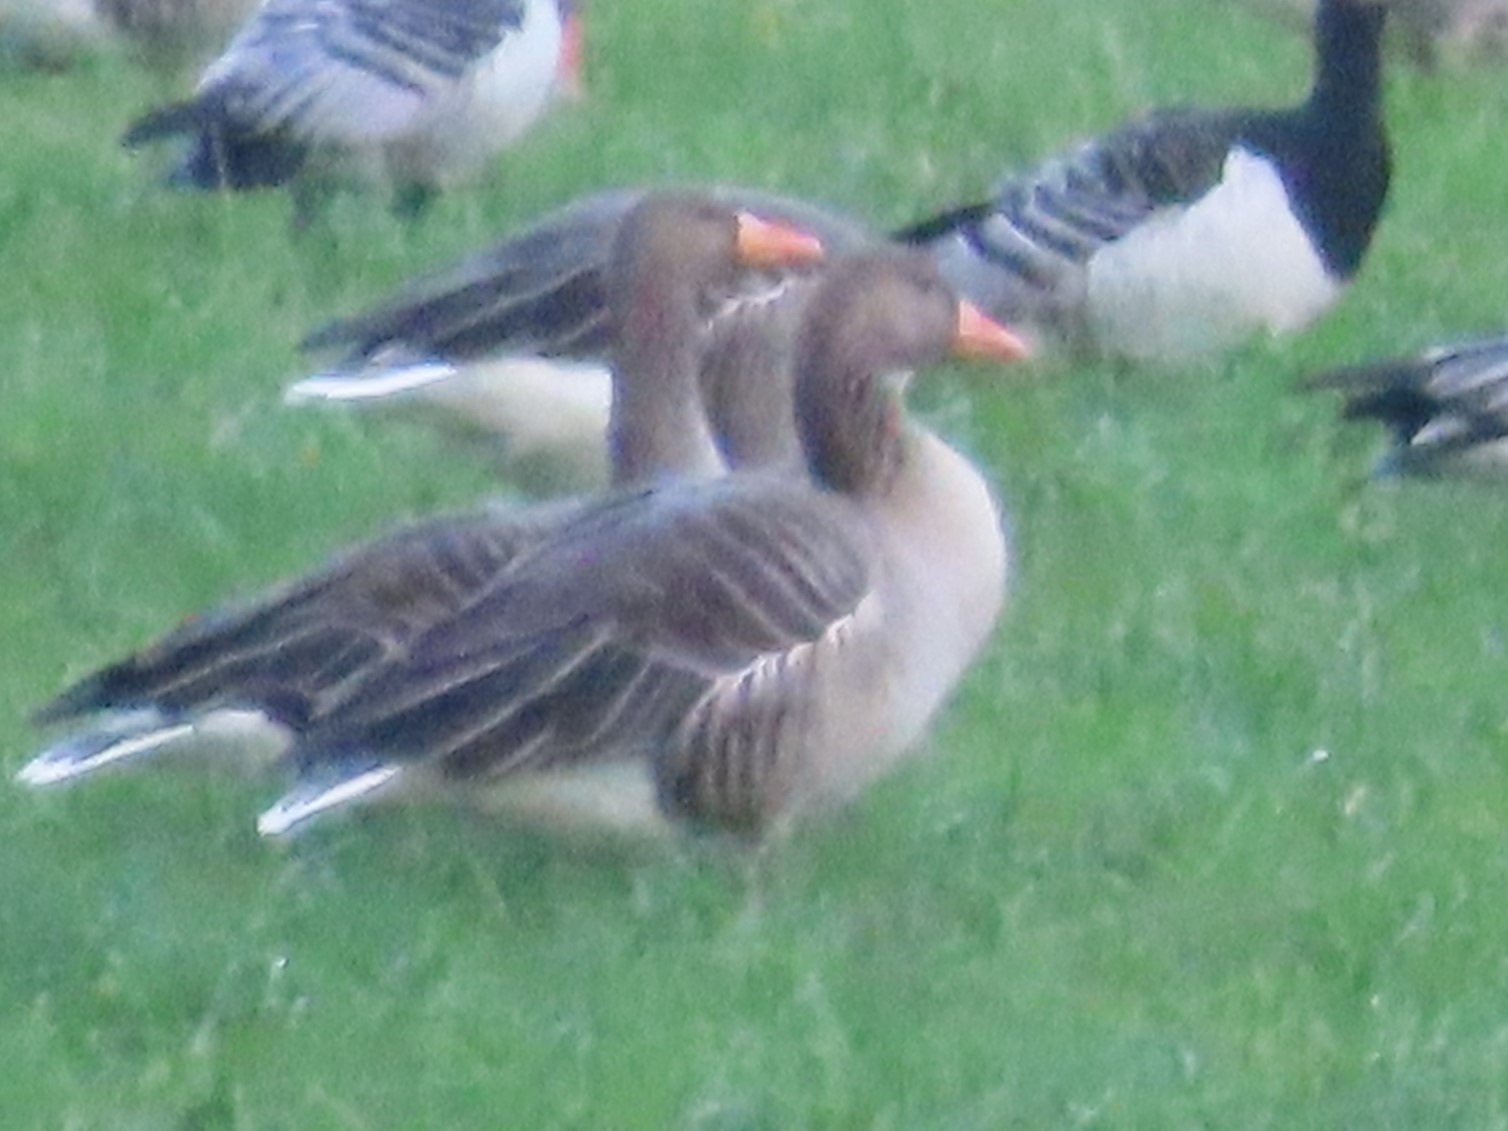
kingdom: Animalia
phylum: Chordata
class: Aves
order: Anseriformes
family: Anatidae
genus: Anser
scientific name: Anser anser
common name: Grågås
